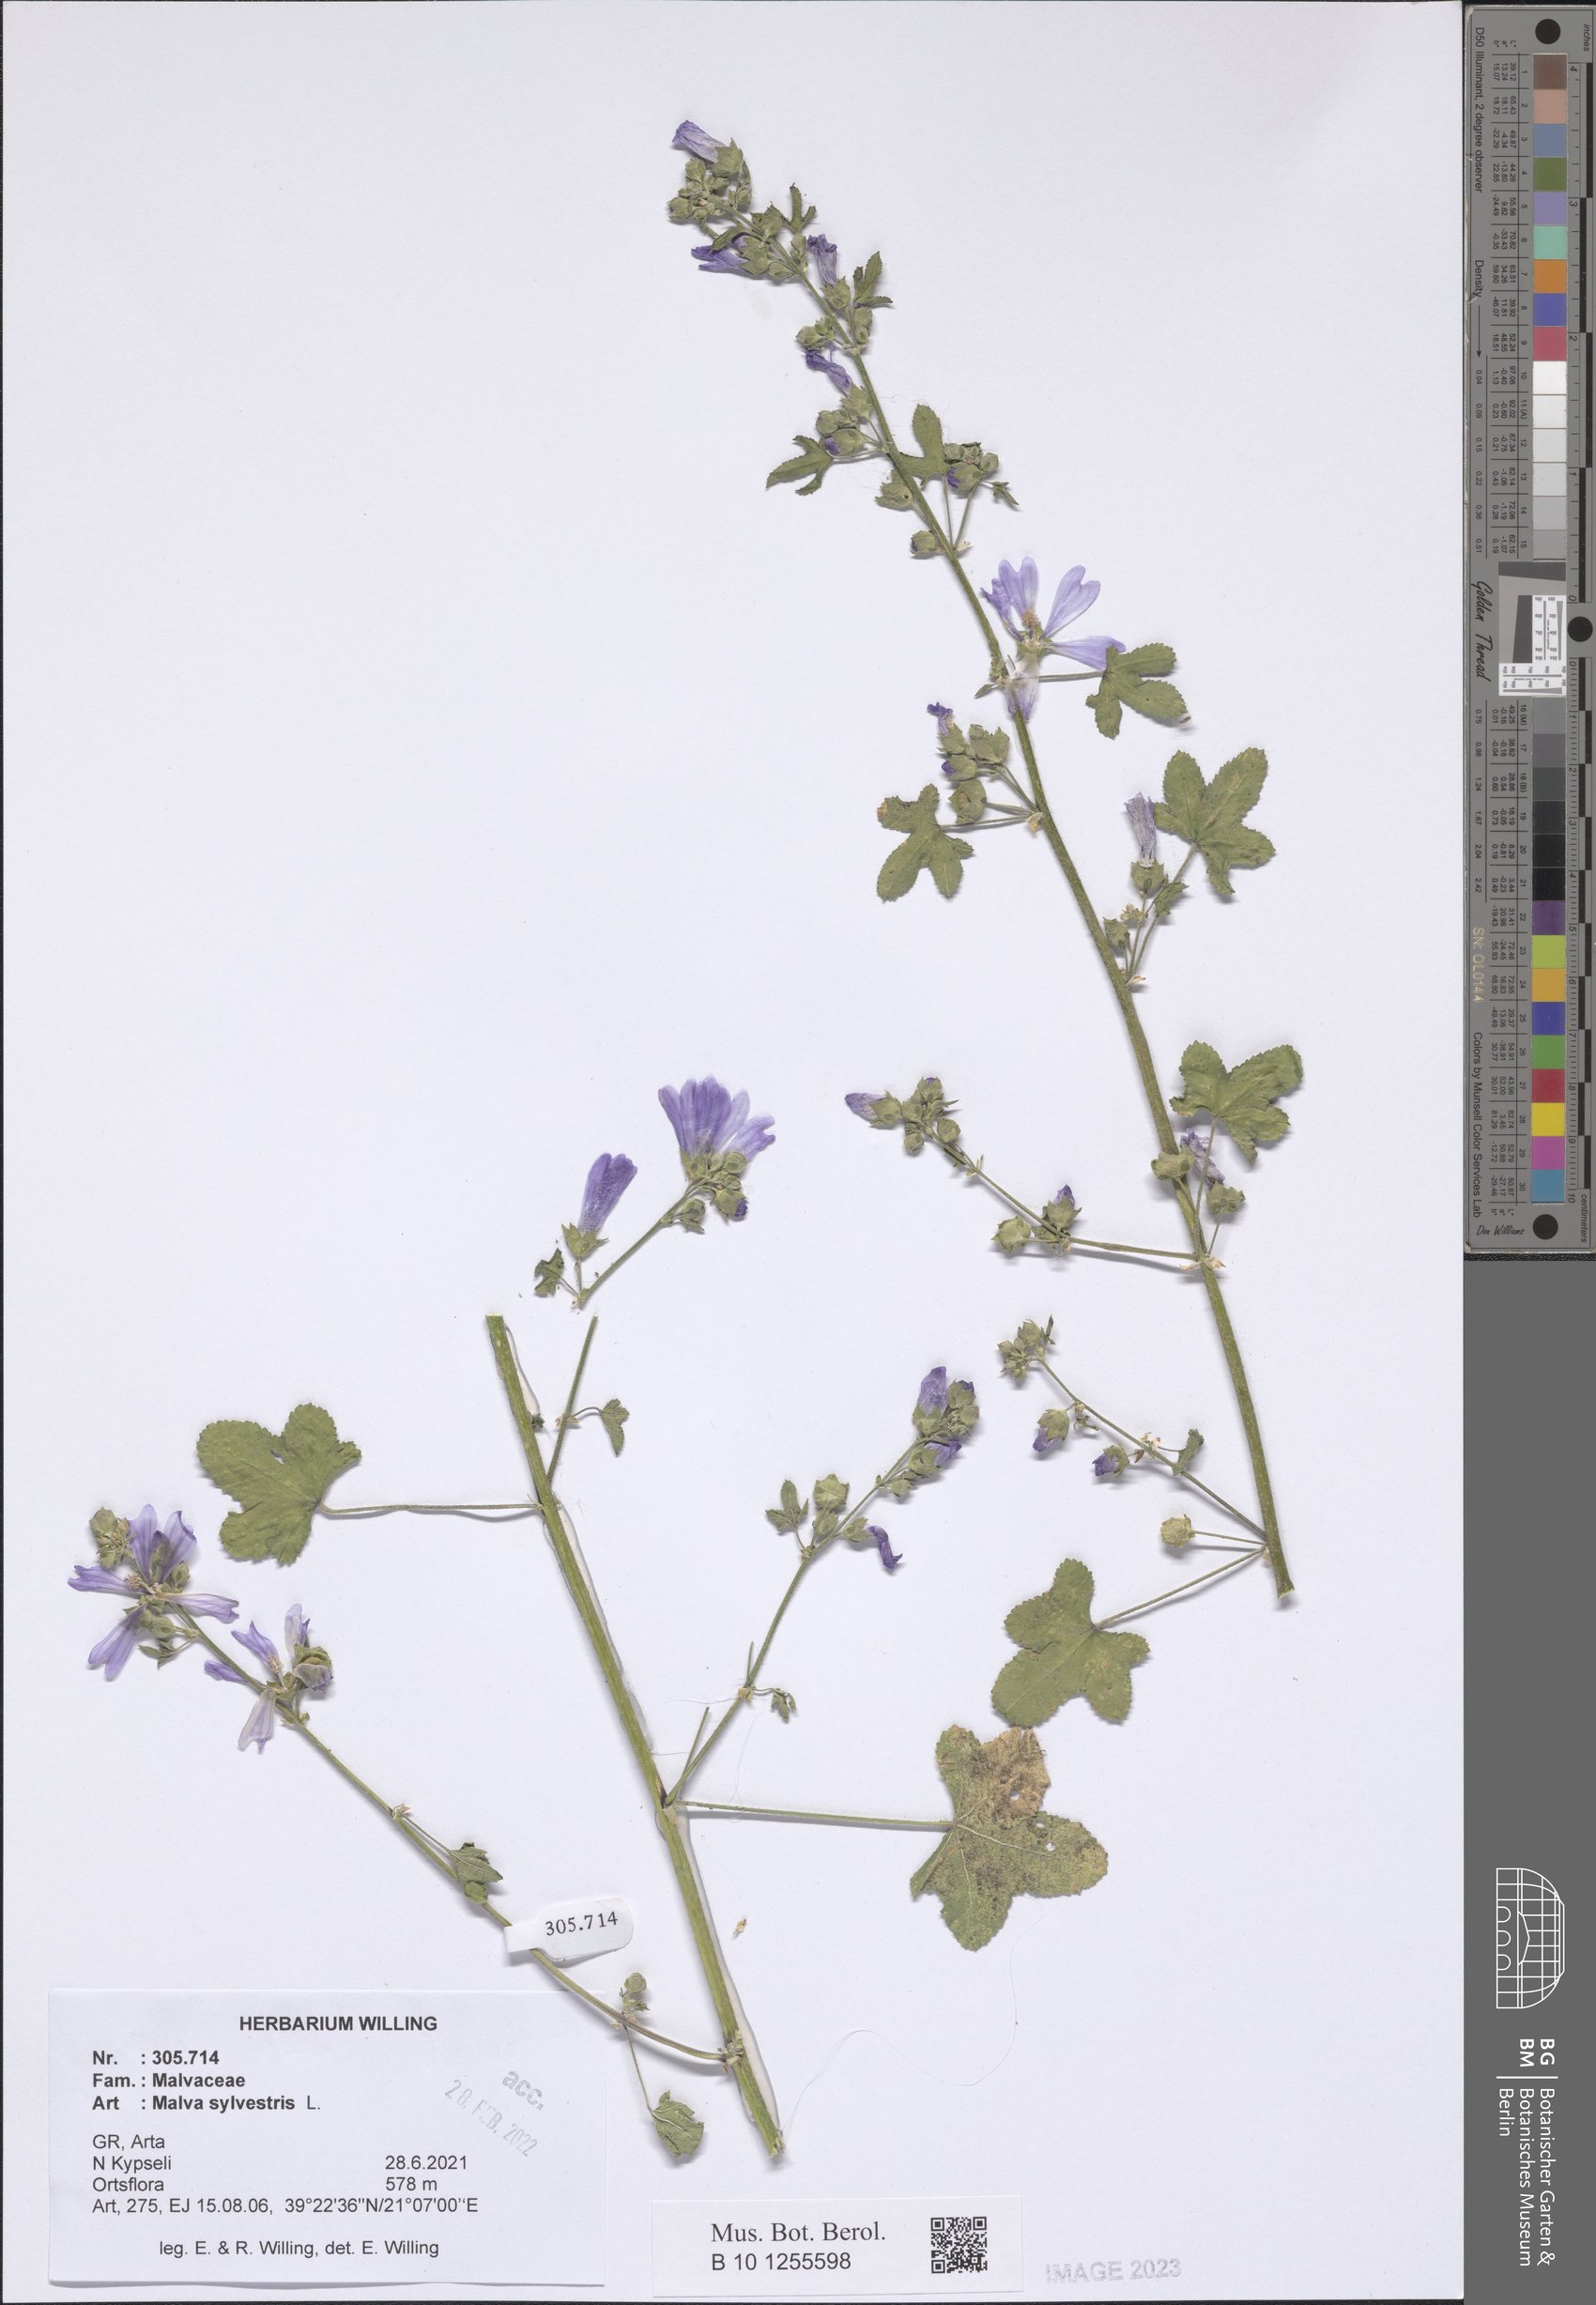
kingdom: Plantae
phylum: Tracheophyta
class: Magnoliopsida
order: Malvales
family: Malvaceae
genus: Malva
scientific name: Malva sylvestris
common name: Common mallow
